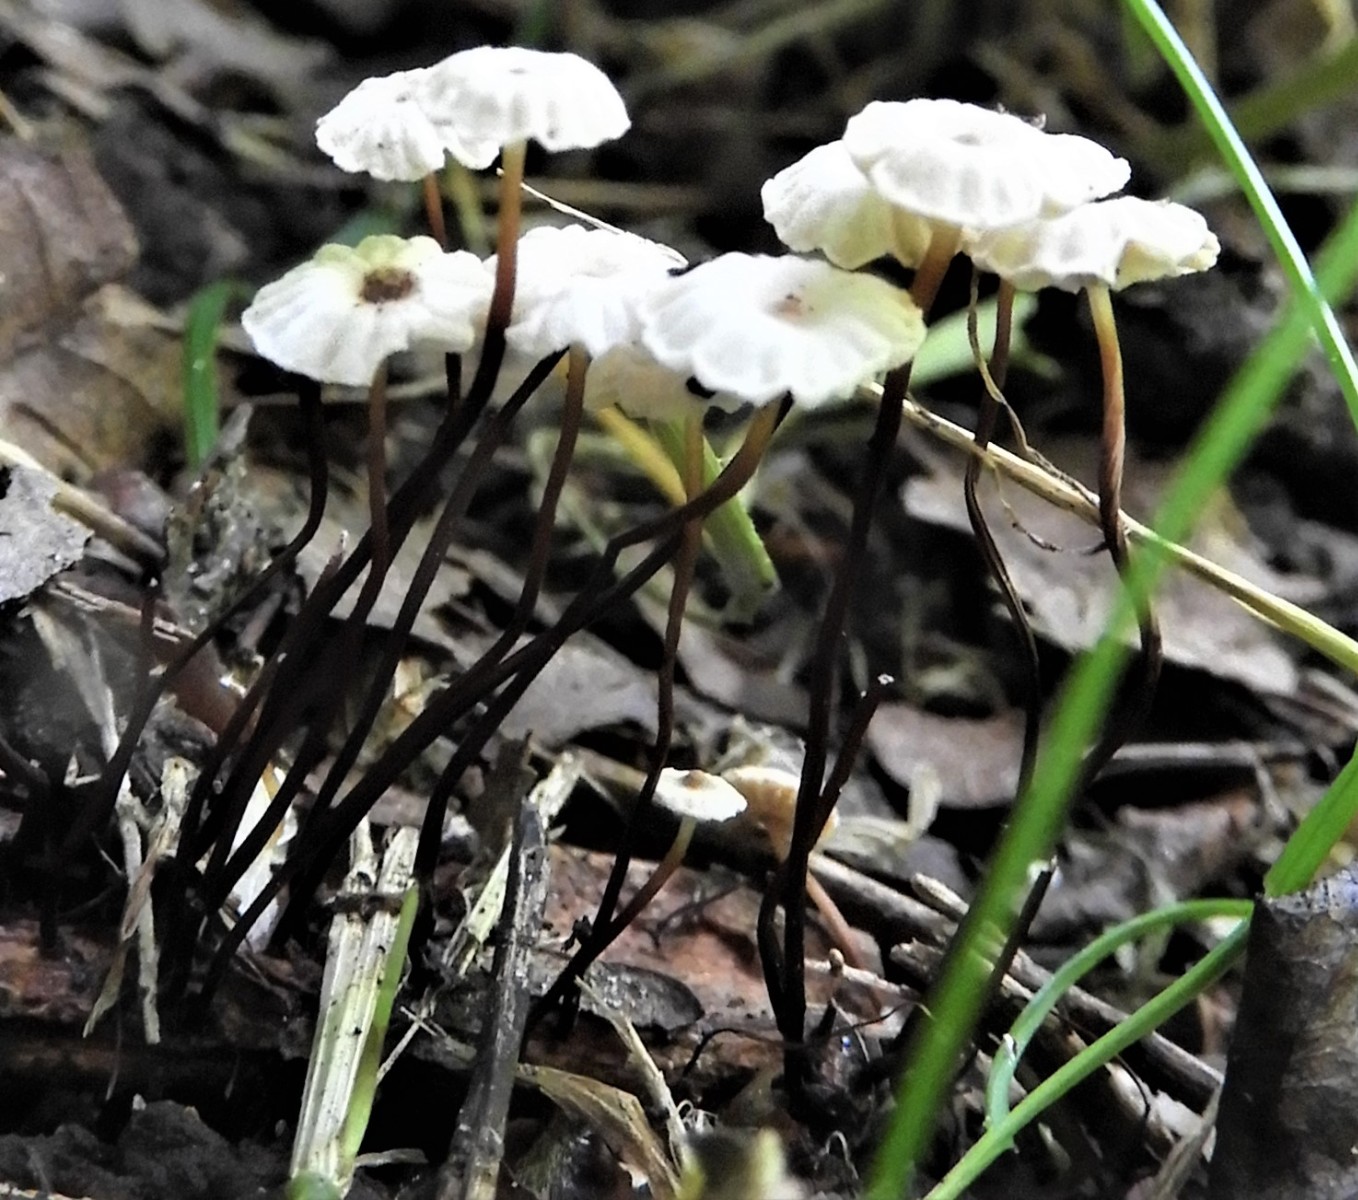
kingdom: Fungi
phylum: Basidiomycota
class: Agaricomycetes
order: Agaricales
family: Marasmiaceae
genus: Marasmius
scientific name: Marasmius rotula
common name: hjul-bruskhat
